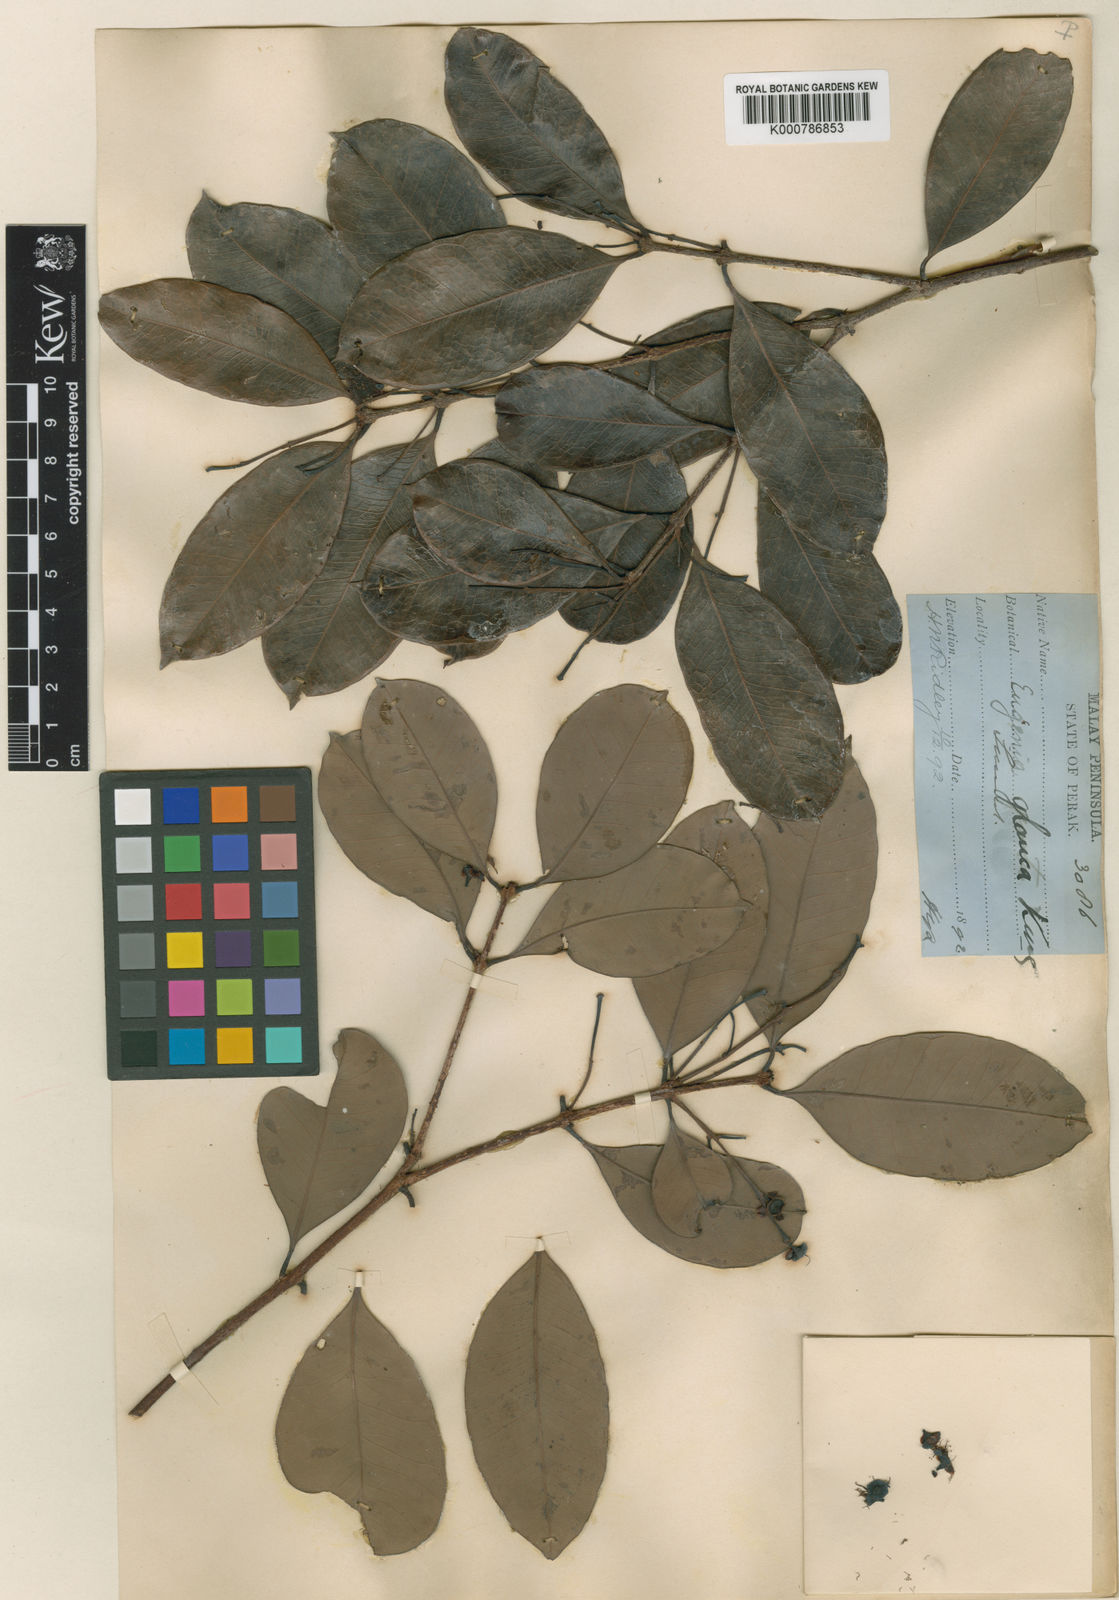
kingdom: Plantae
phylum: Tracheophyta
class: Magnoliopsida
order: Myrtales
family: Myrtaceae
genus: Syzygium
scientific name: Syzygium glaucum
